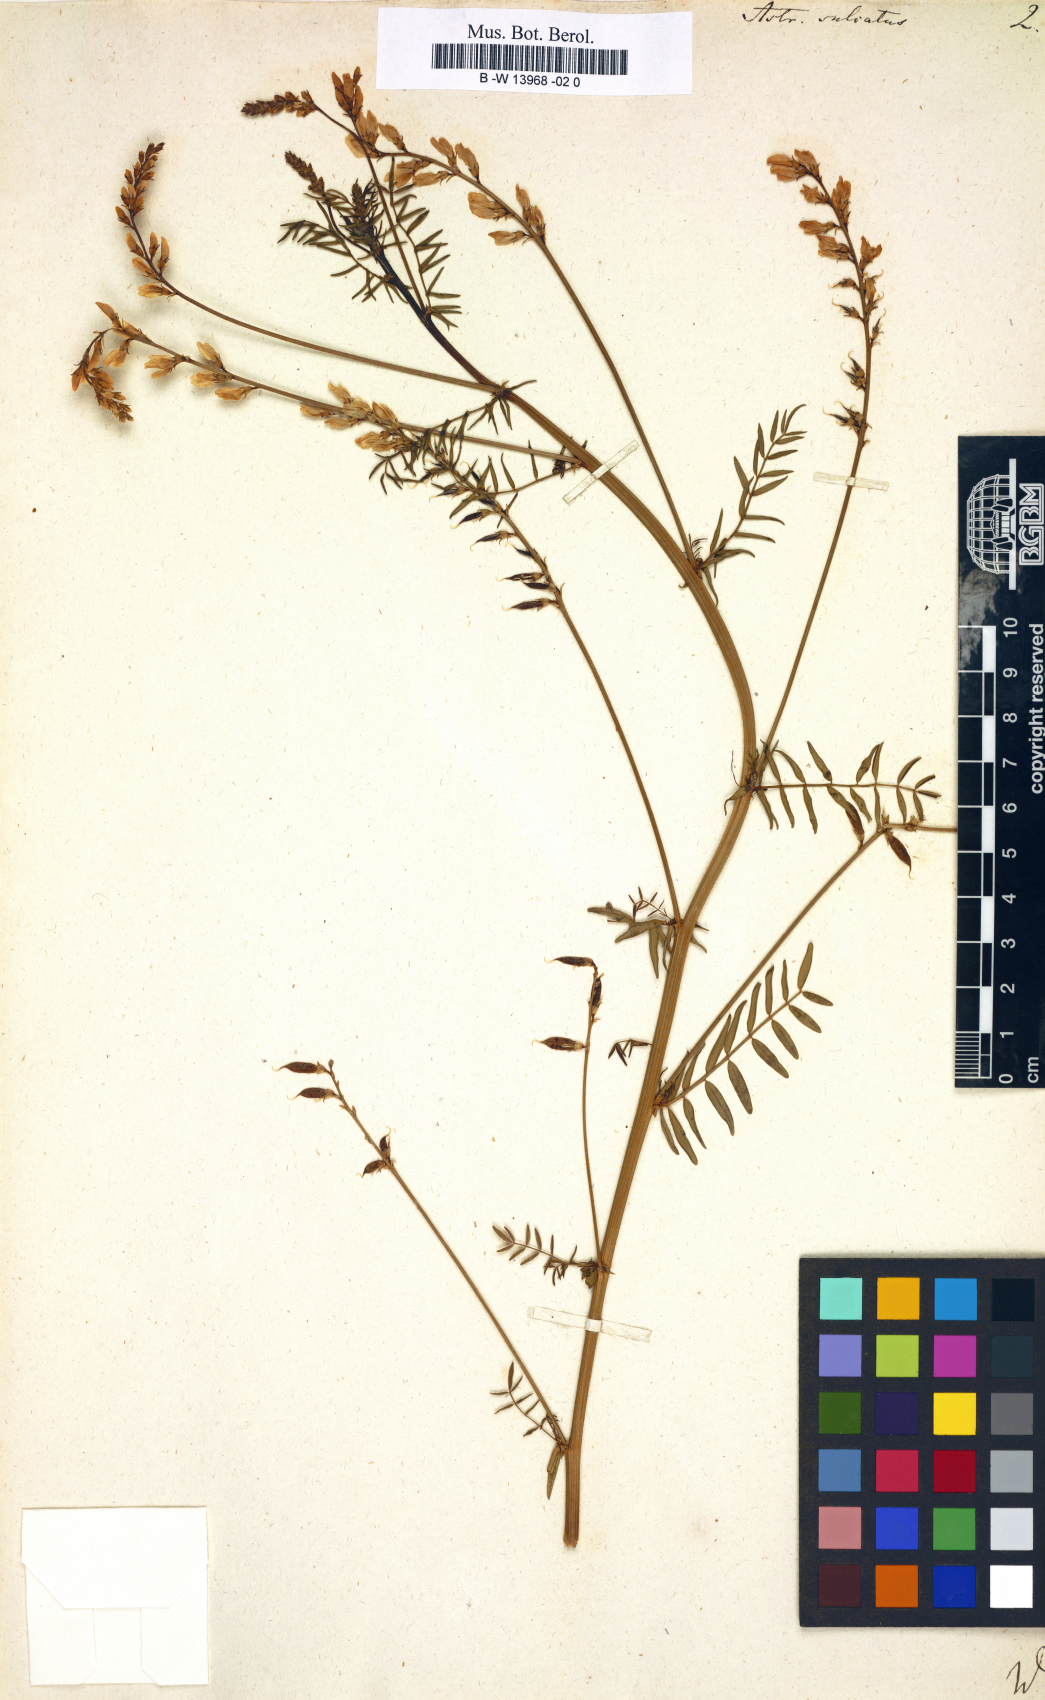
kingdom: Plantae
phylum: Tracheophyta
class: Magnoliopsida
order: Fabales
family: Fabaceae
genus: Astragalus
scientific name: Astragalus sulcatus
